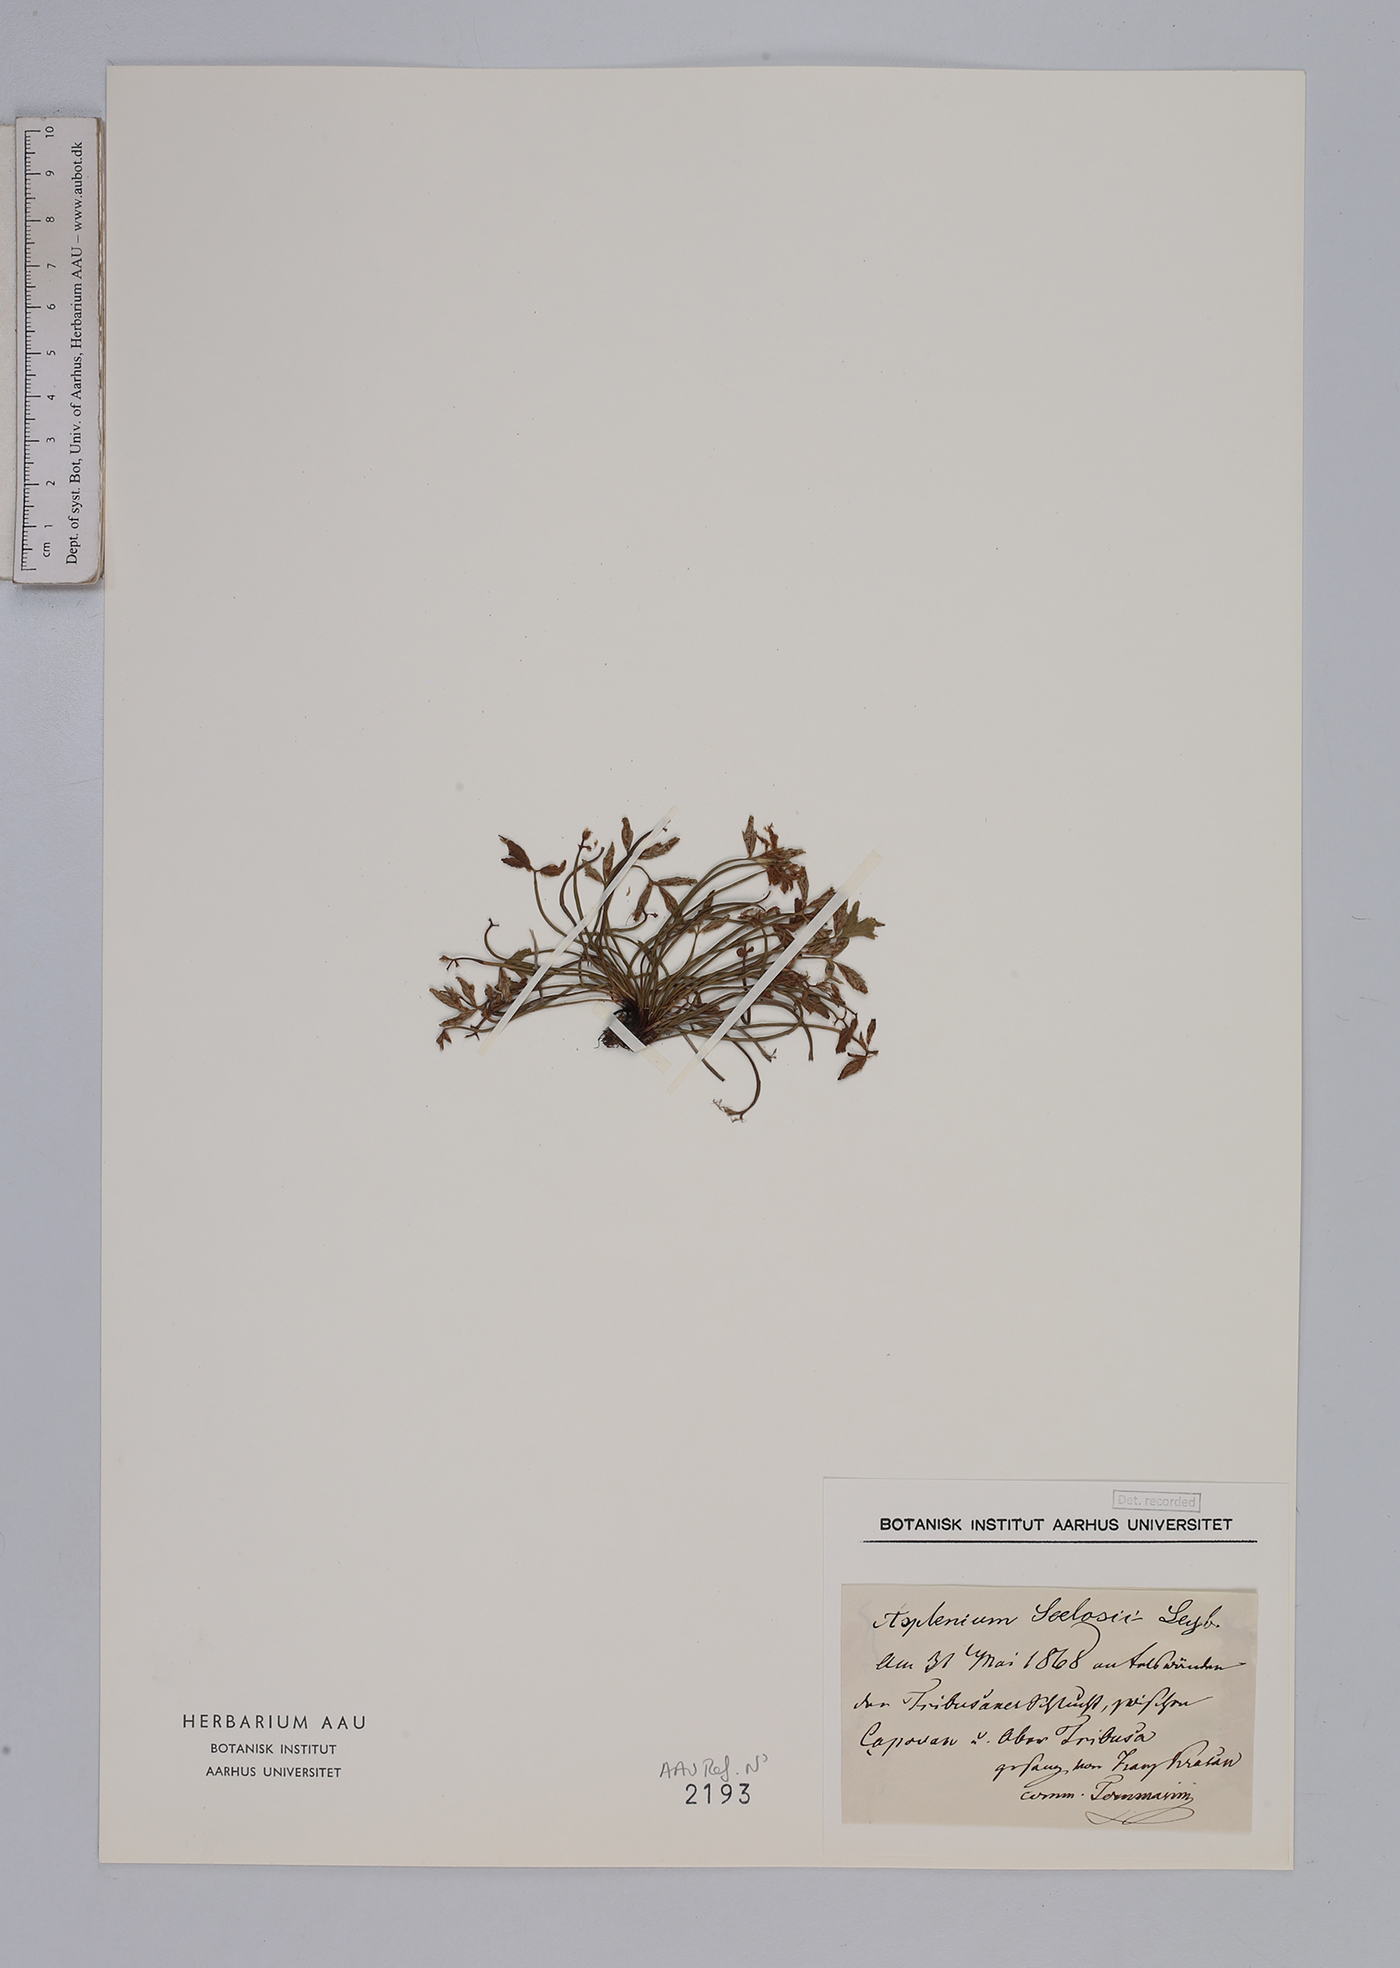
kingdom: Plantae
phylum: Tracheophyta
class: Polypodiopsida
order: Polypodiales
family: Aspleniaceae
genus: Asplenium
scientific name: Asplenium seelosii
